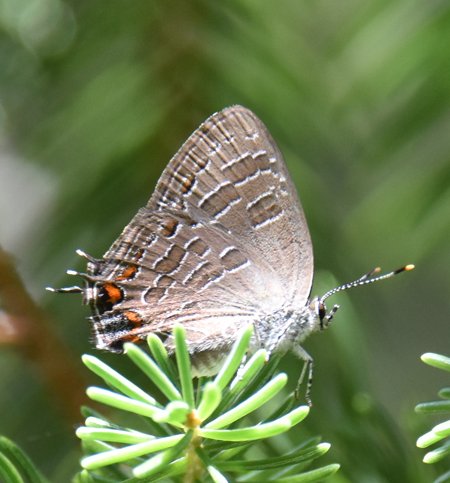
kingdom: Animalia
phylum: Arthropoda
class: Insecta
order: Lepidoptera
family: Lycaenidae
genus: Satyrium
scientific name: Satyrium liparops
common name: Striped Hairstreak
